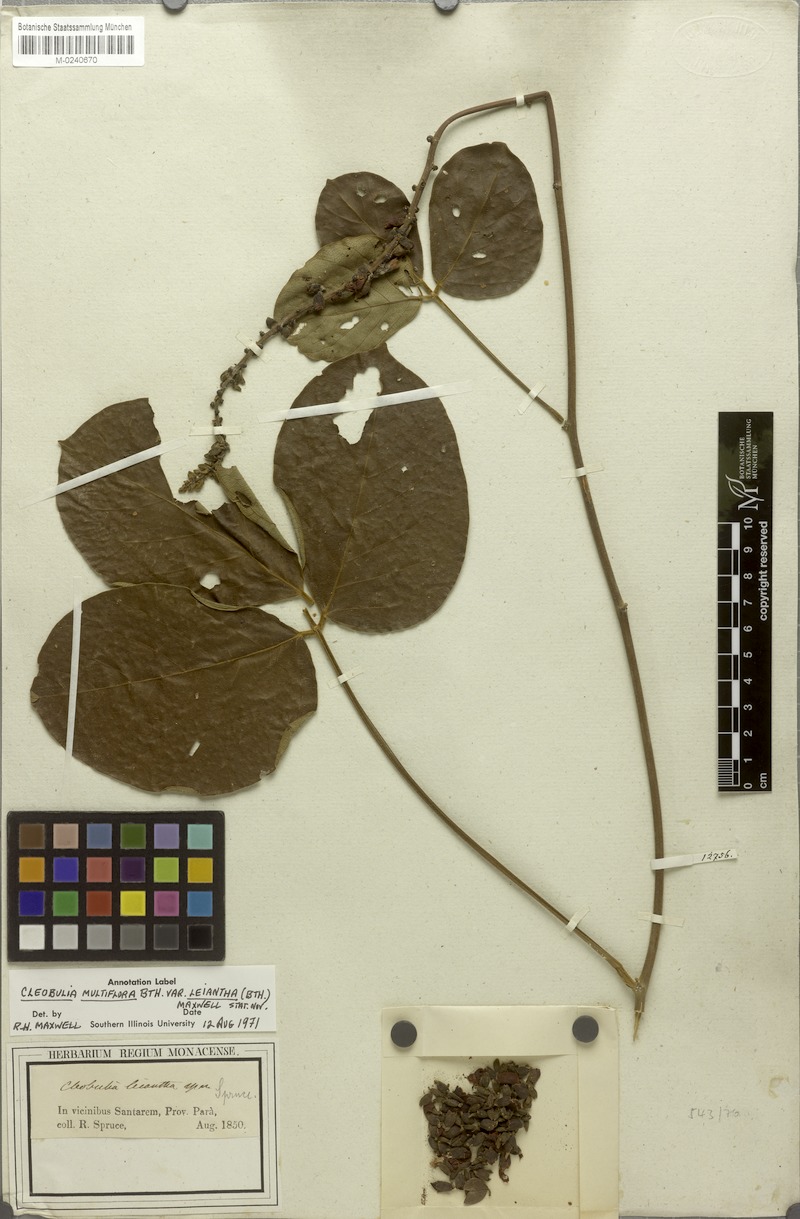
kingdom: Plantae
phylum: Tracheophyta
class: Magnoliopsida
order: Fabales
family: Fabaceae
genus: Cleobulia
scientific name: Cleobulia leiantha
